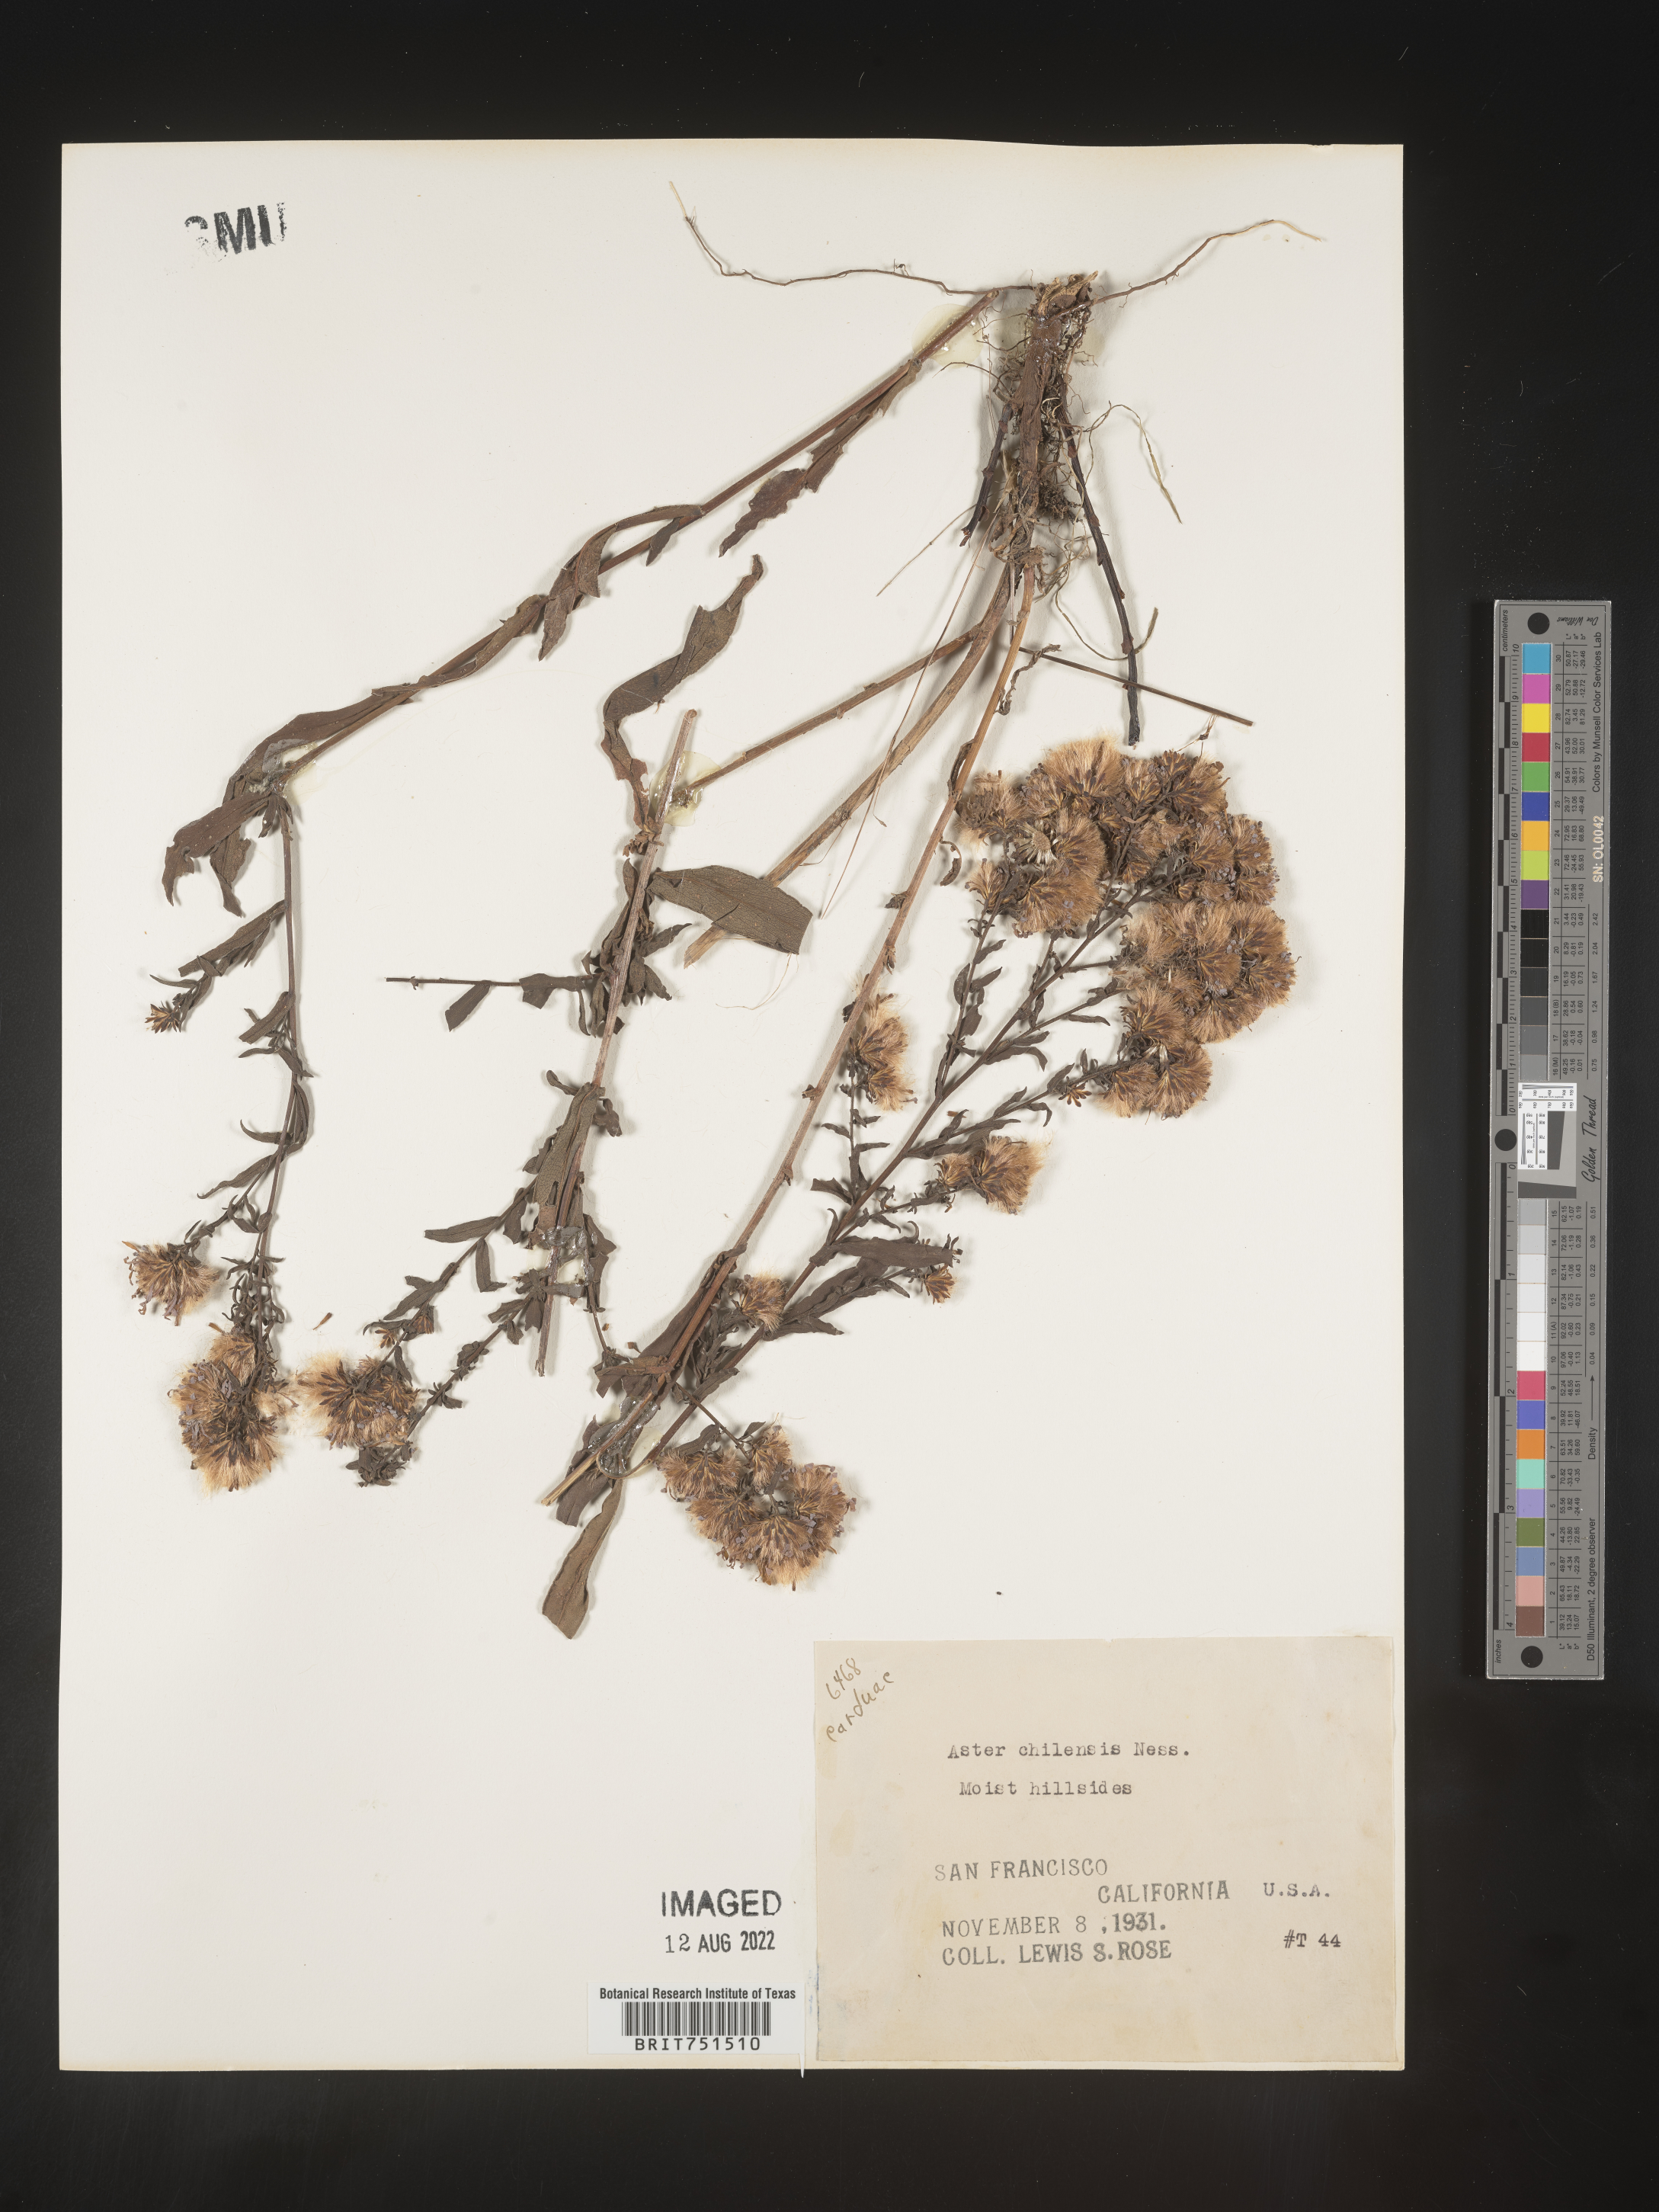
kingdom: Plantae
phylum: Tracheophyta
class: Magnoliopsida
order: Asterales
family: Asteraceae
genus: Symphyotrichum
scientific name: Symphyotrichum chilense
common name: Pacific aster
